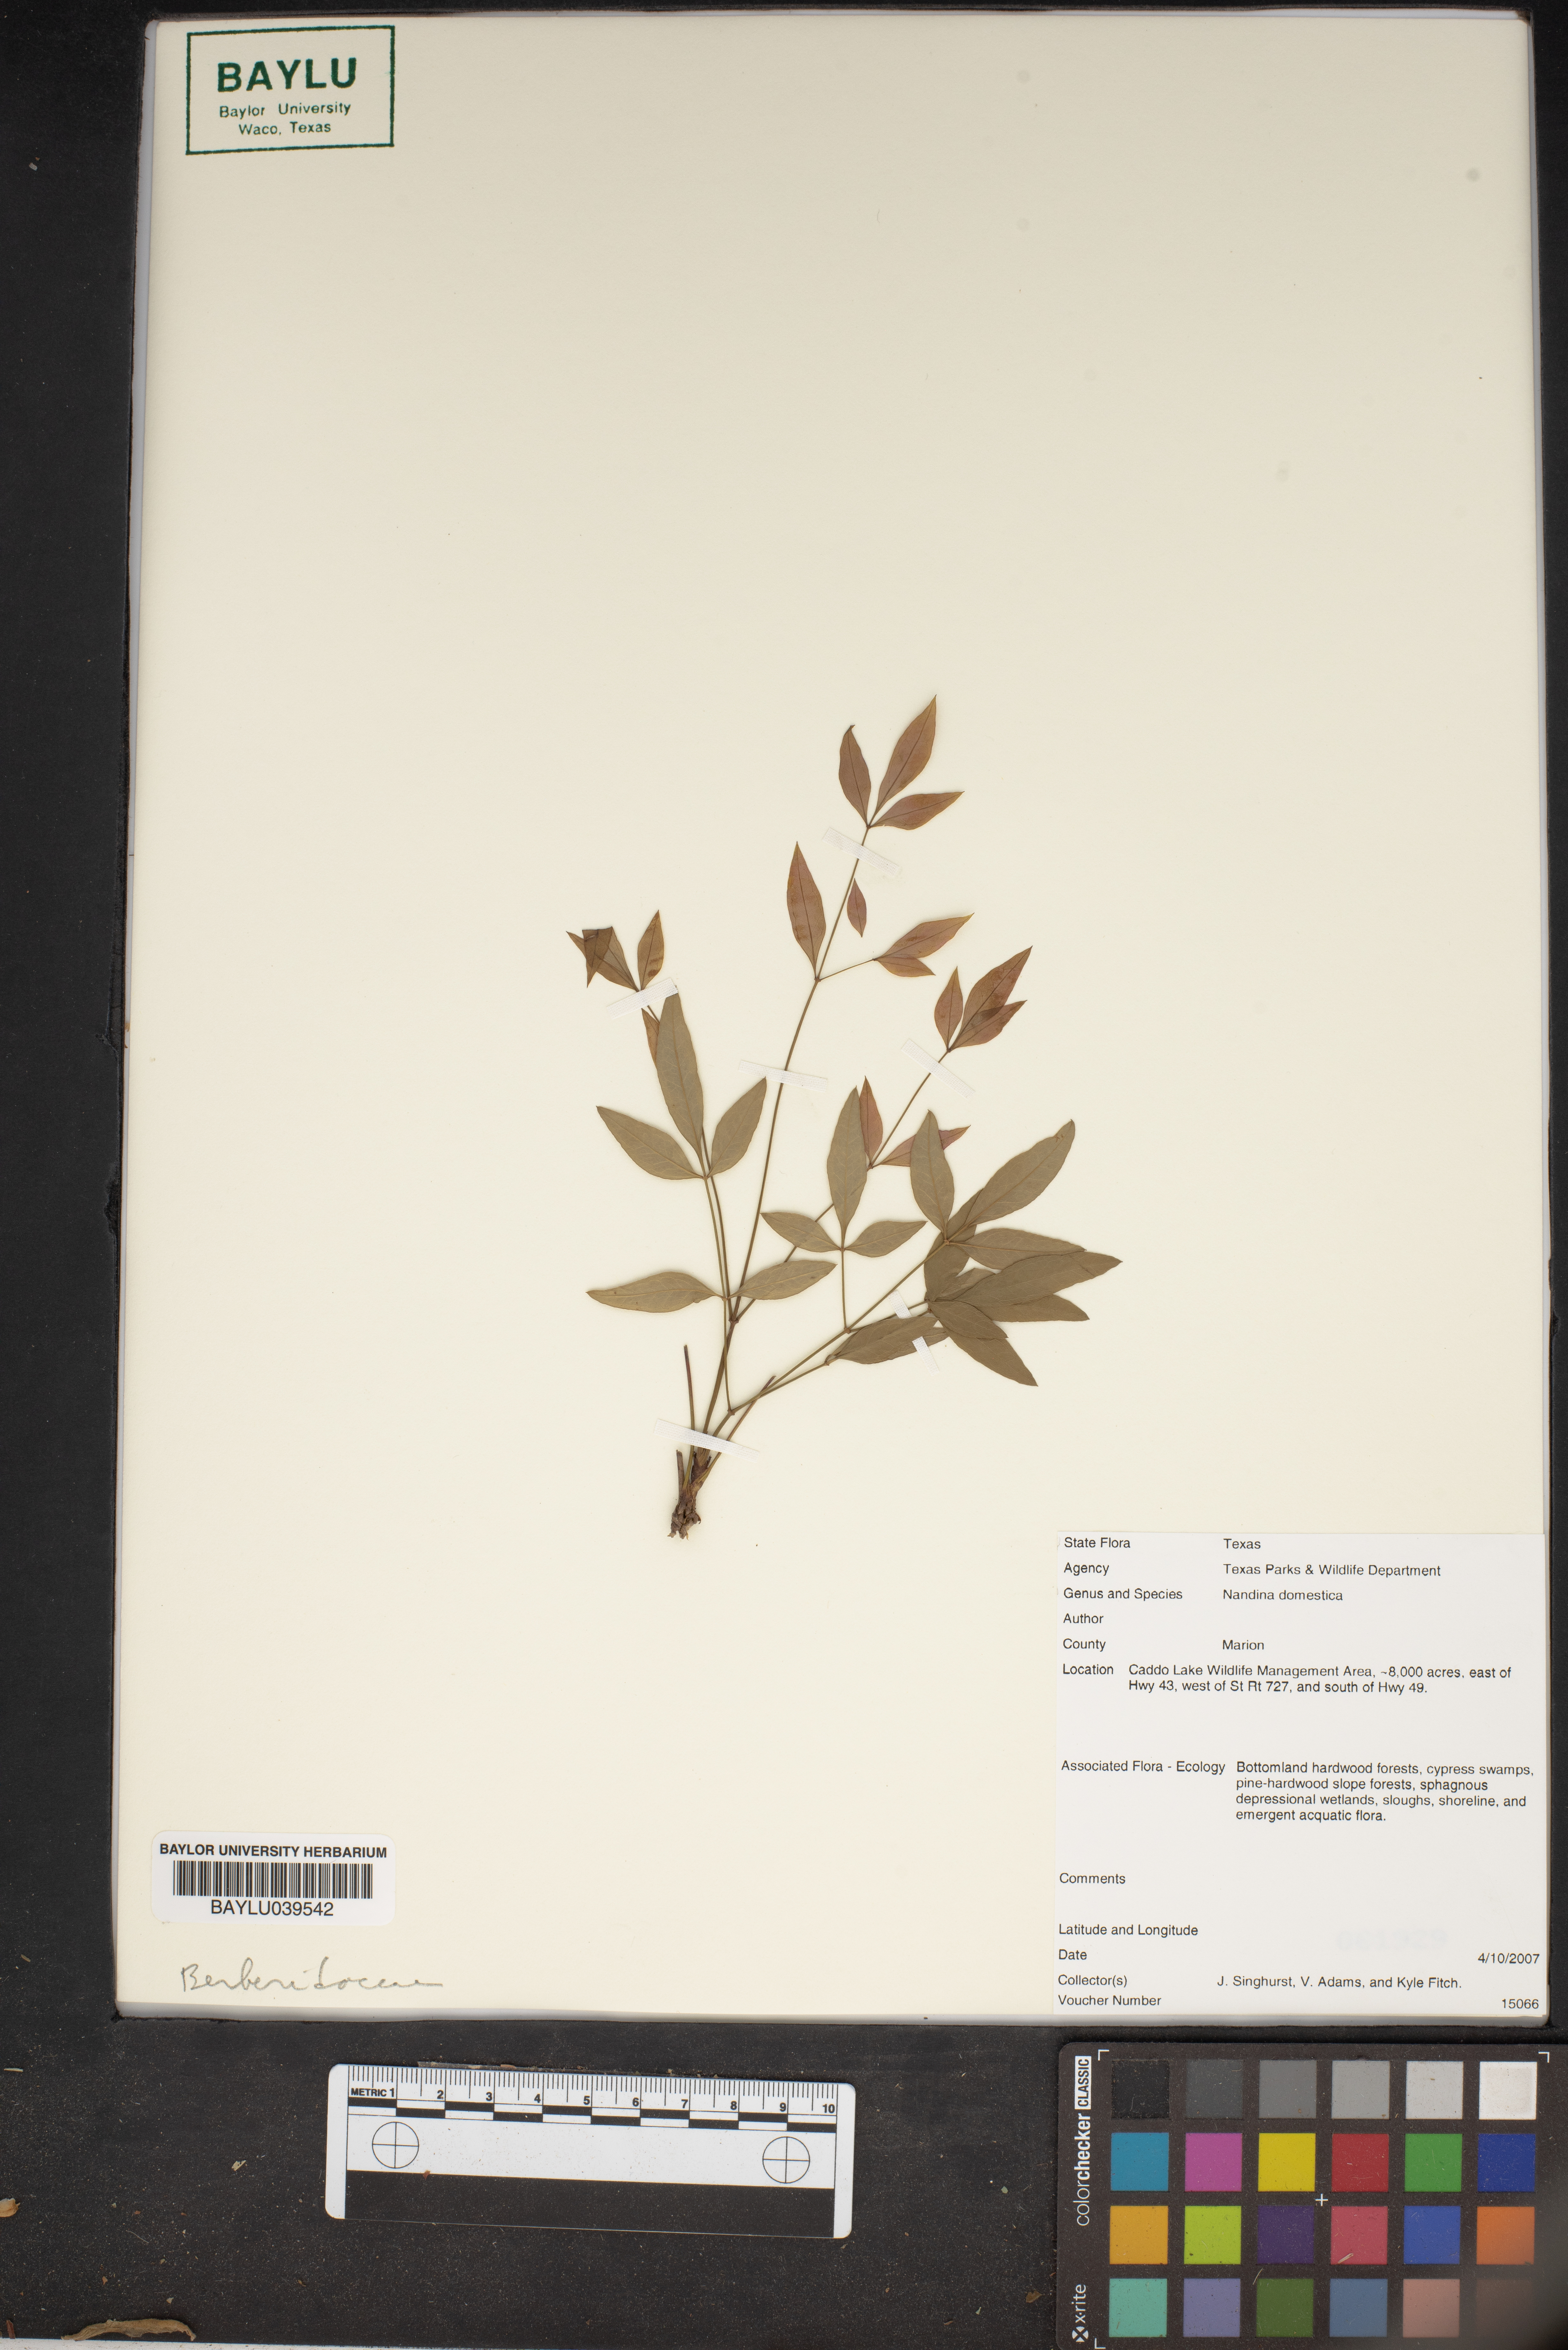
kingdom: Plantae
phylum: Tracheophyta
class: Magnoliopsida
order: Ranunculales
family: Berberidaceae
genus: Nandina
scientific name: Nandina domestica
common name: Sacred bamboo
